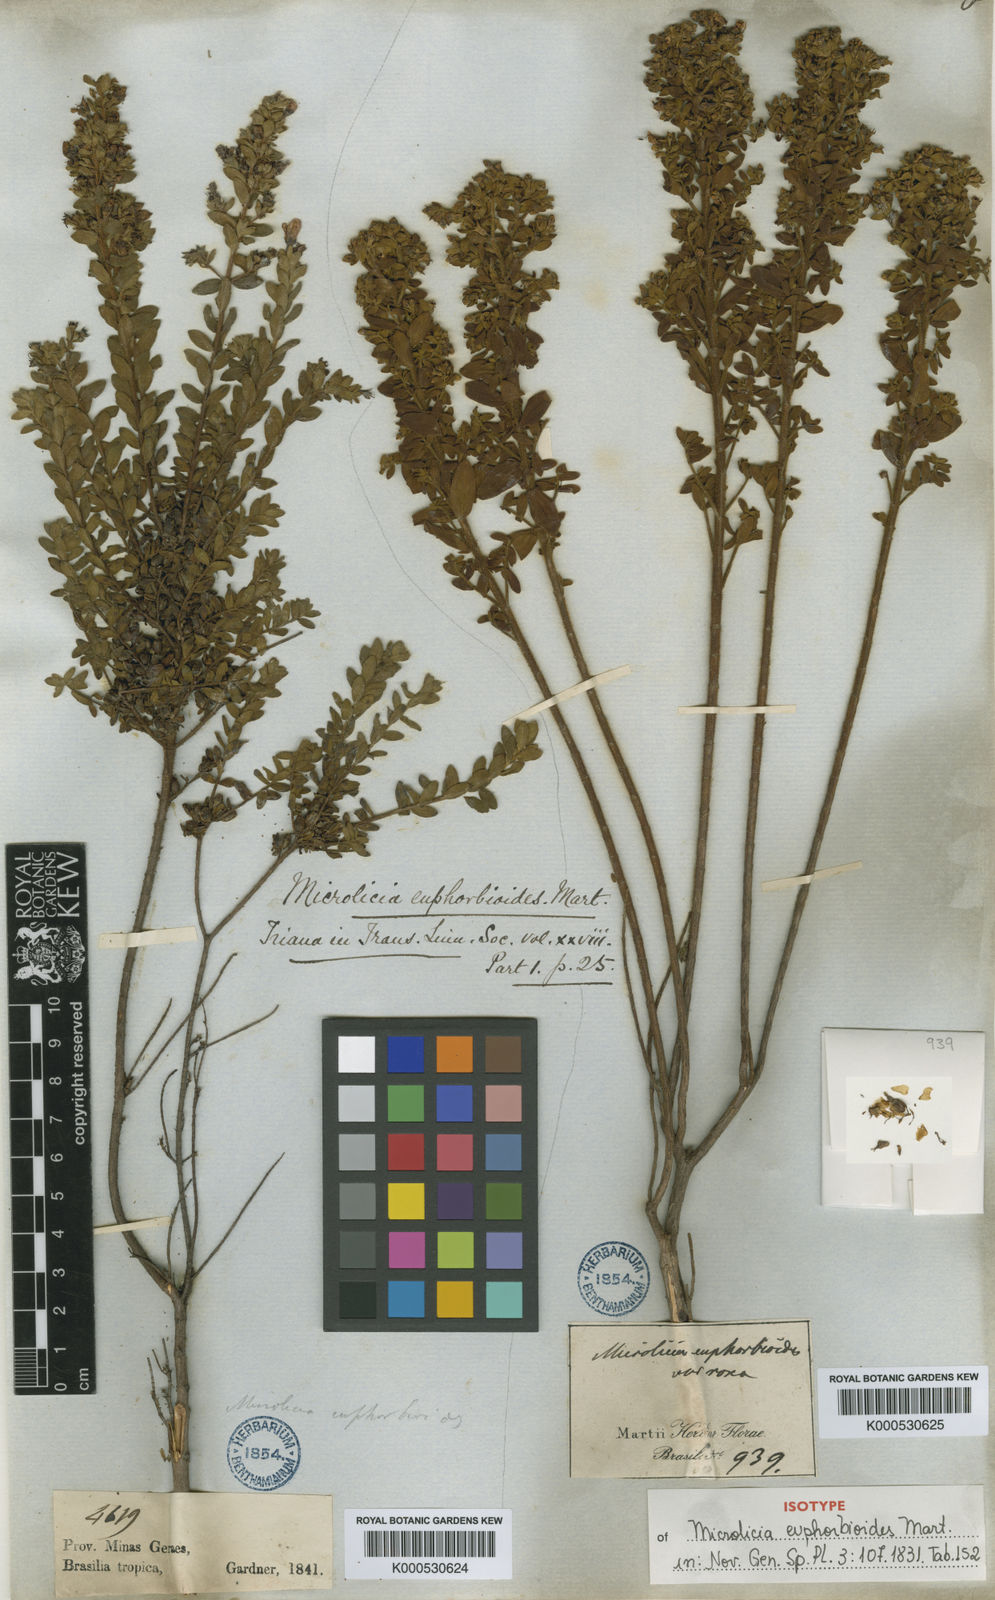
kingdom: Plantae
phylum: Tracheophyta
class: Magnoliopsida
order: Myrtales
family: Melastomataceae
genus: Microlicia
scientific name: Microlicia euphorbioides
